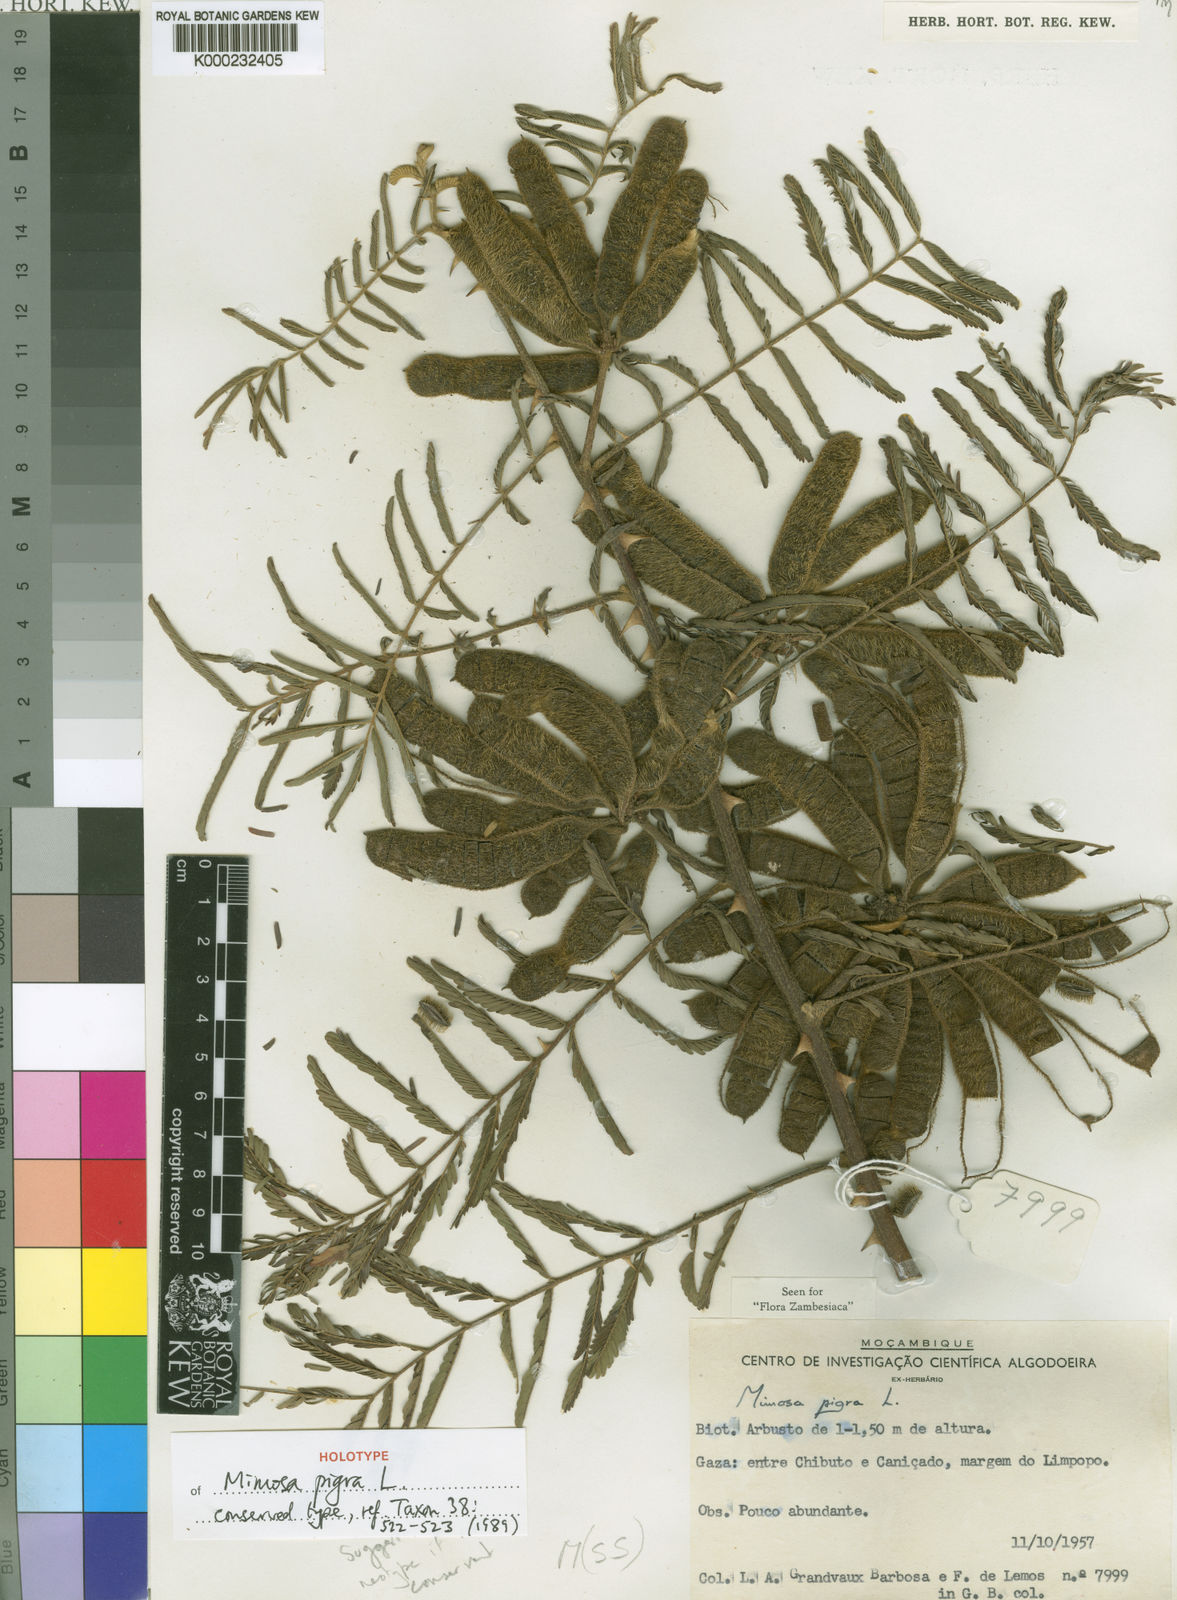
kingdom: Plantae
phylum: Tracheophyta
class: Magnoliopsida
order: Fabales
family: Fabaceae
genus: Mimosa
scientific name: Mimosa pigra
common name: Black mimosa
